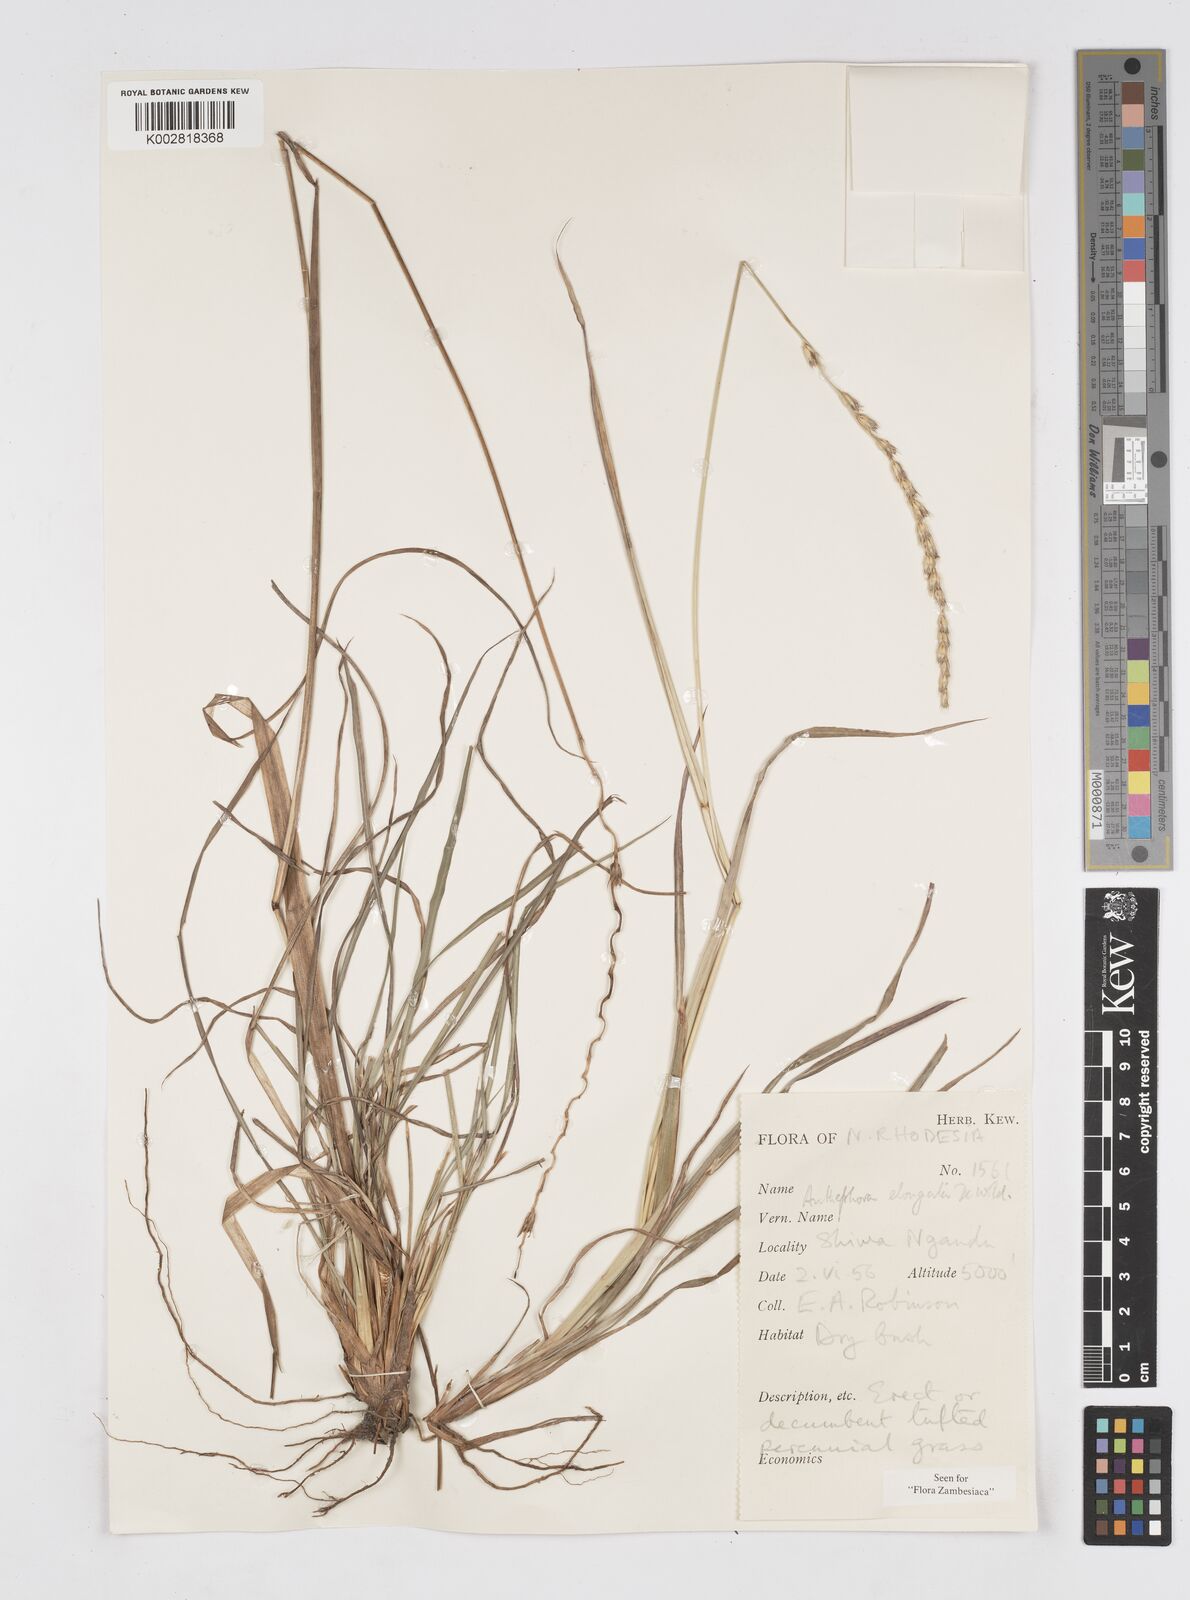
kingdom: Plantae
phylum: Tracheophyta
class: Liliopsida
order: Poales
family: Poaceae
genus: Anthephora
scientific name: Anthephora elongata
